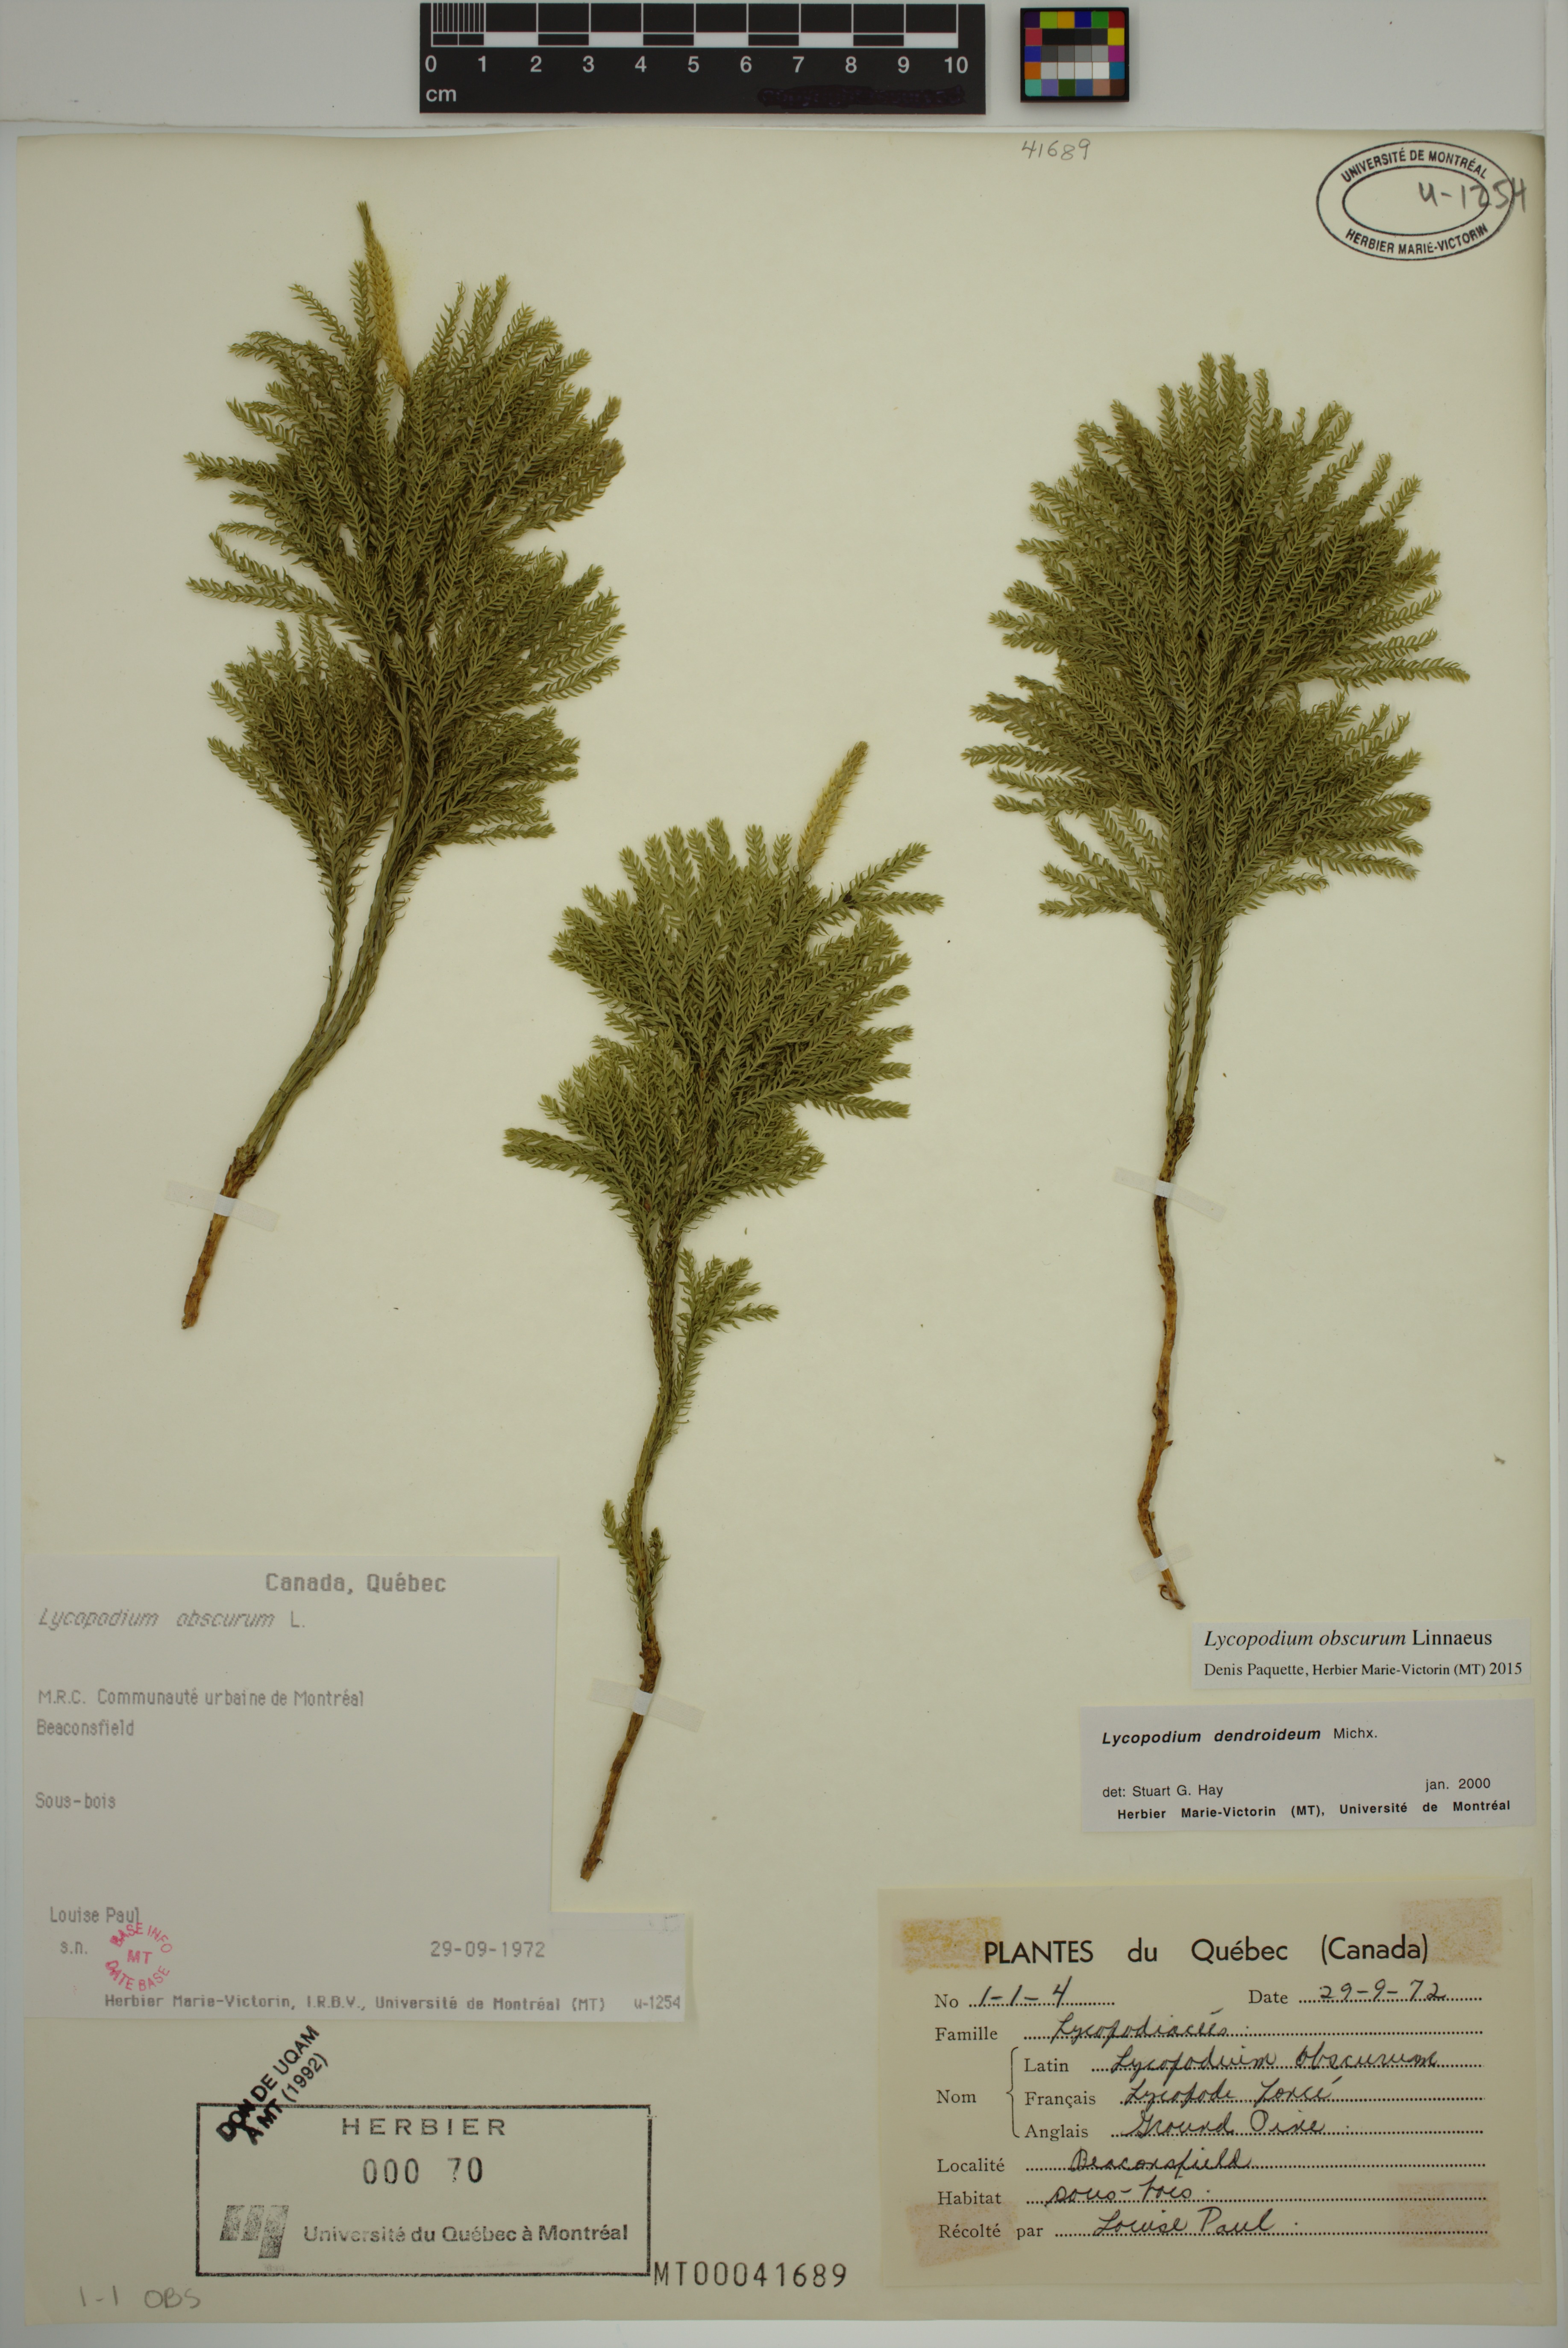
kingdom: Plantae
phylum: Tracheophyta
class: Lycopodiopsida
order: Lycopodiales
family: Lycopodiaceae
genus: Dendrolycopodium
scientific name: Dendrolycopodium obscurum
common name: Common ground-pine
